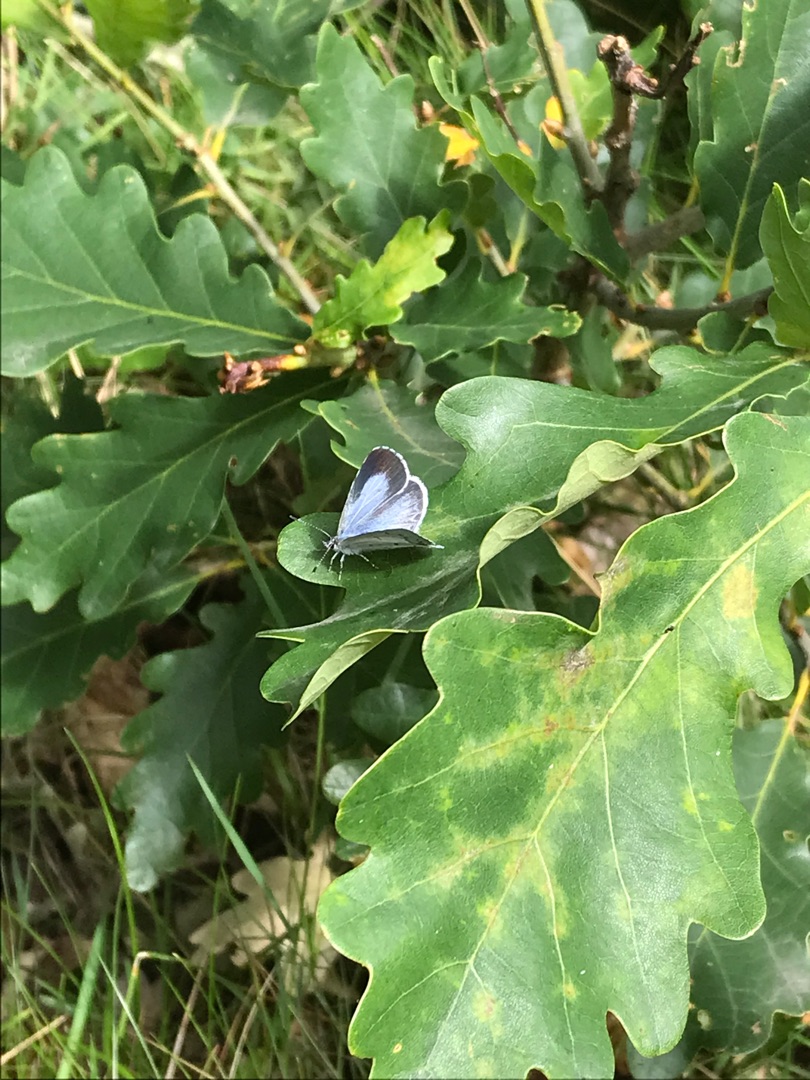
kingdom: Animalia
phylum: Arthropoda
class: Insecta
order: Lepidoptera
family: Lycaenidae
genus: Celastrina
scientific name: Celastrina argiolus
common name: Skovblåfugl
